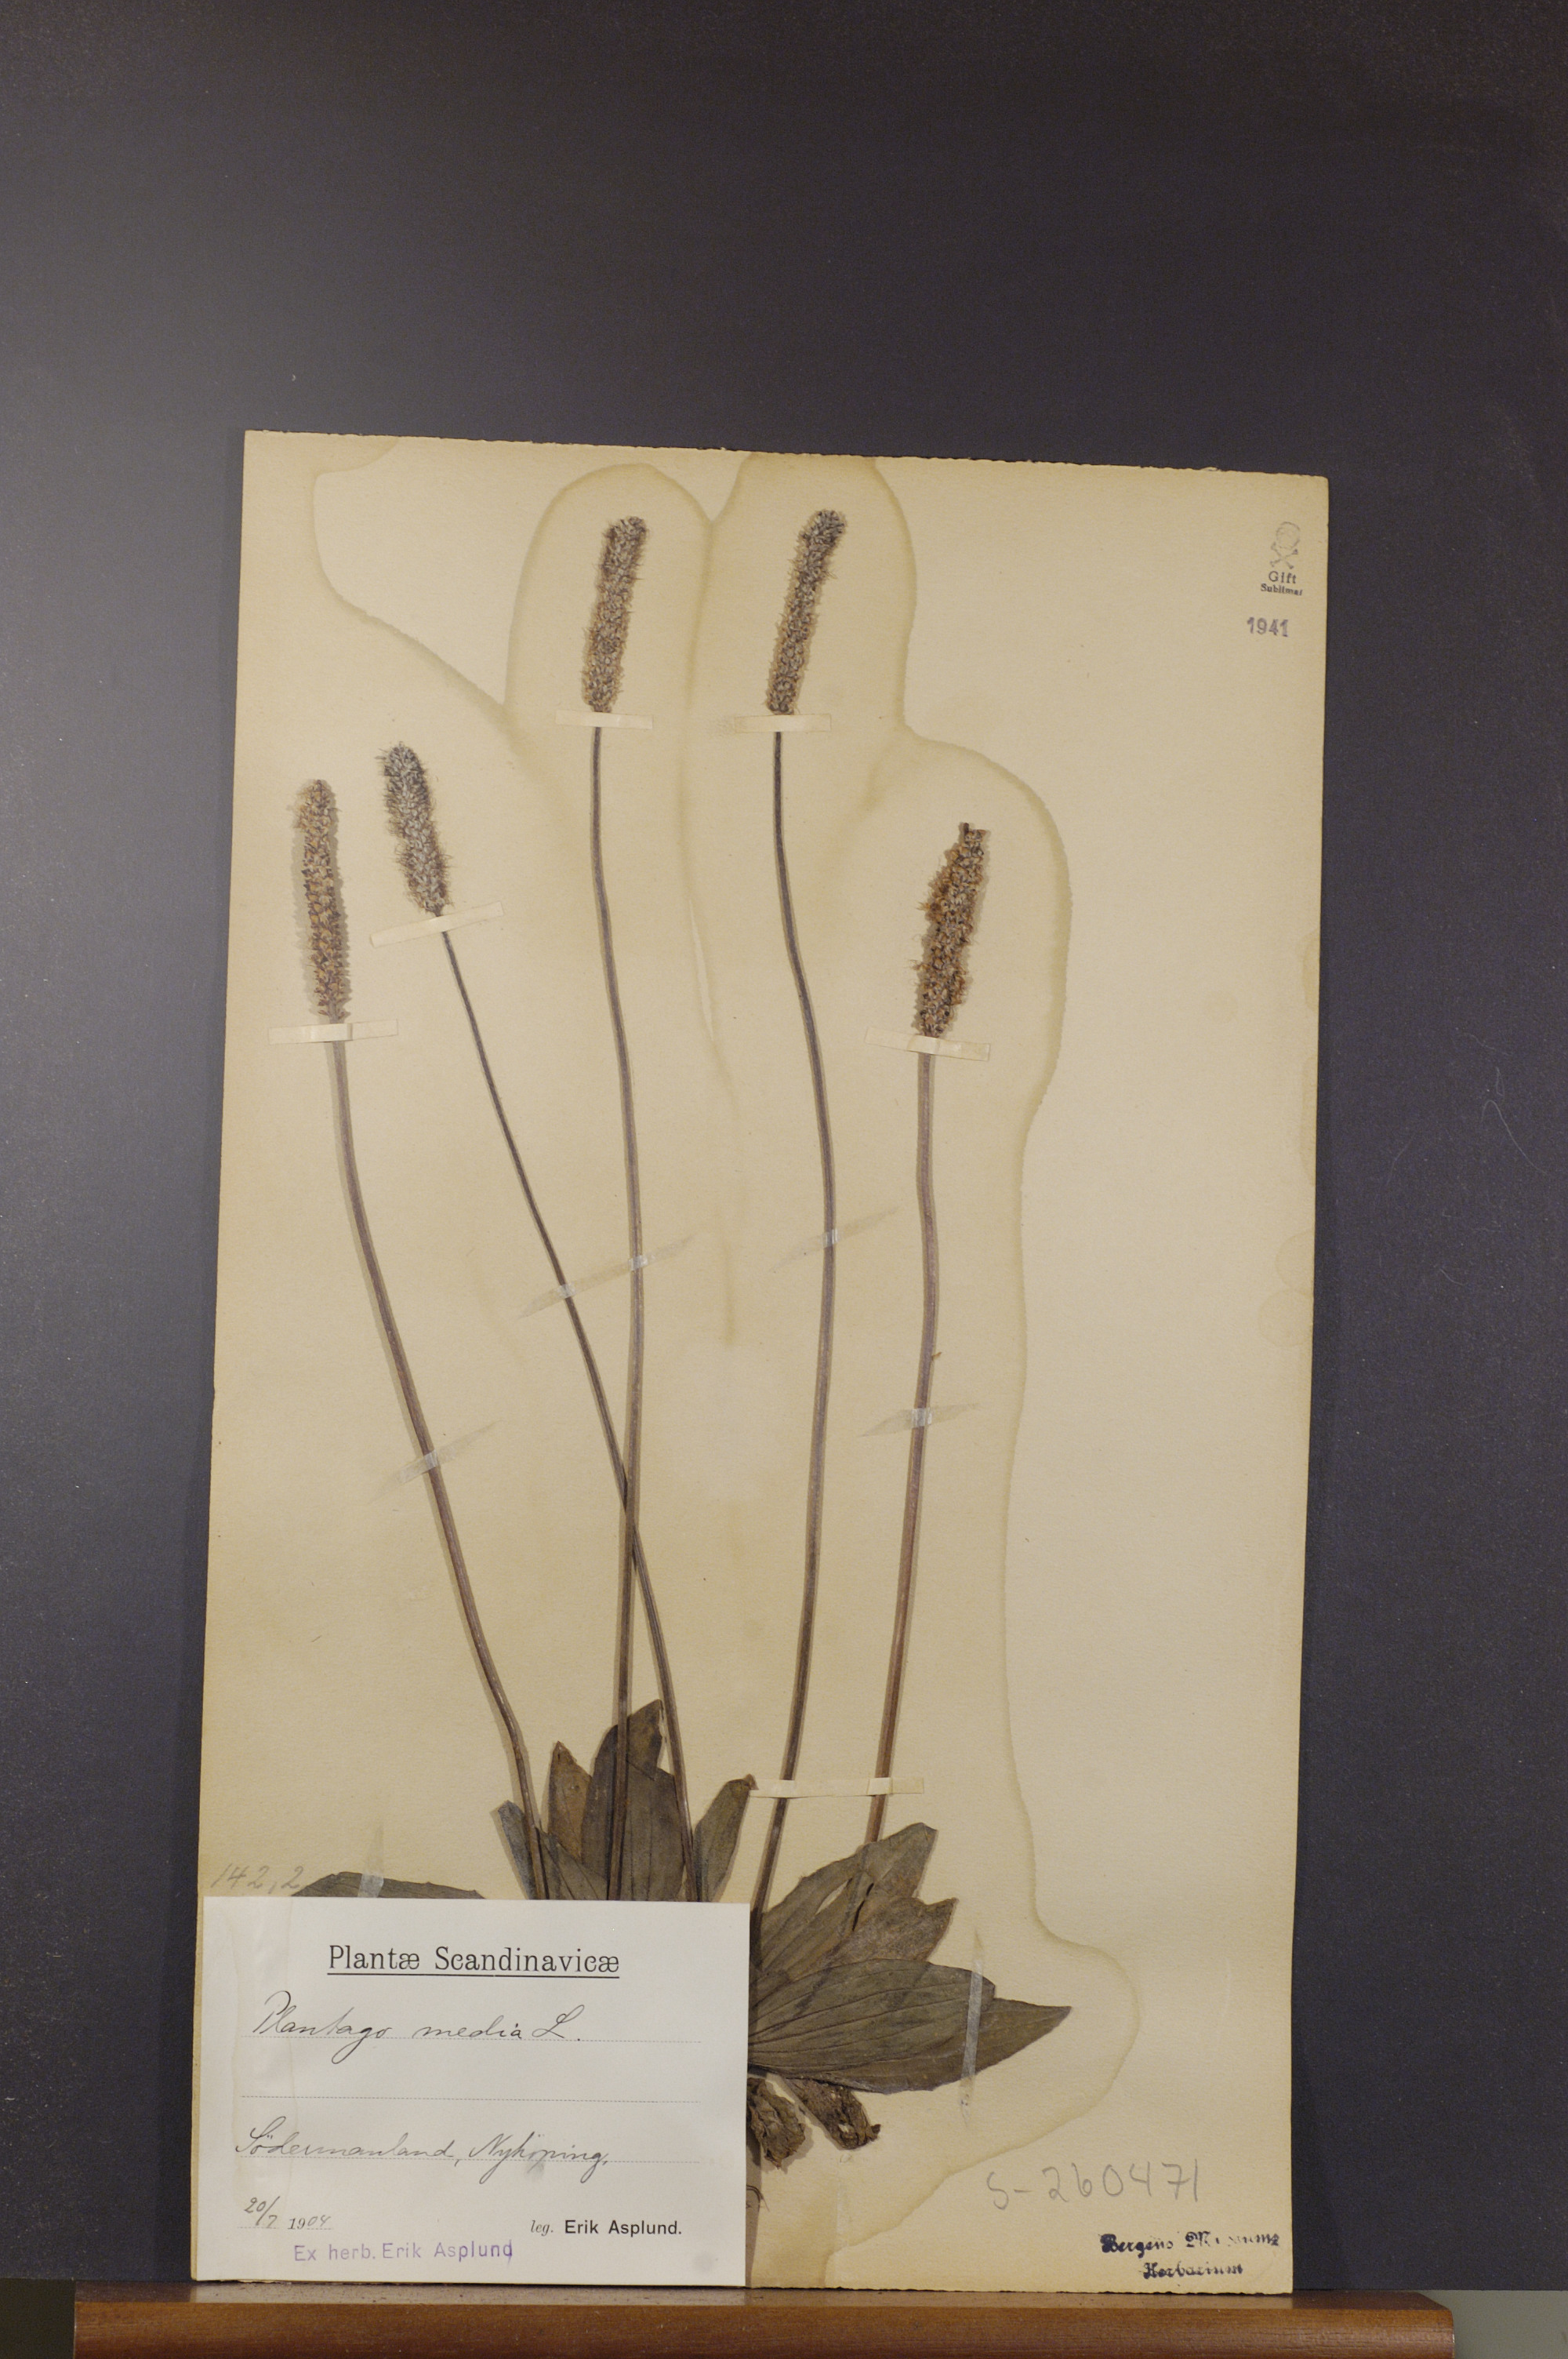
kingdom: Plantae
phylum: Tracheophyta
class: Magnoliopsida
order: Lamiales
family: Plantaginaceae
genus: Plantago
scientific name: Plantago media
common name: Hoary plantain
